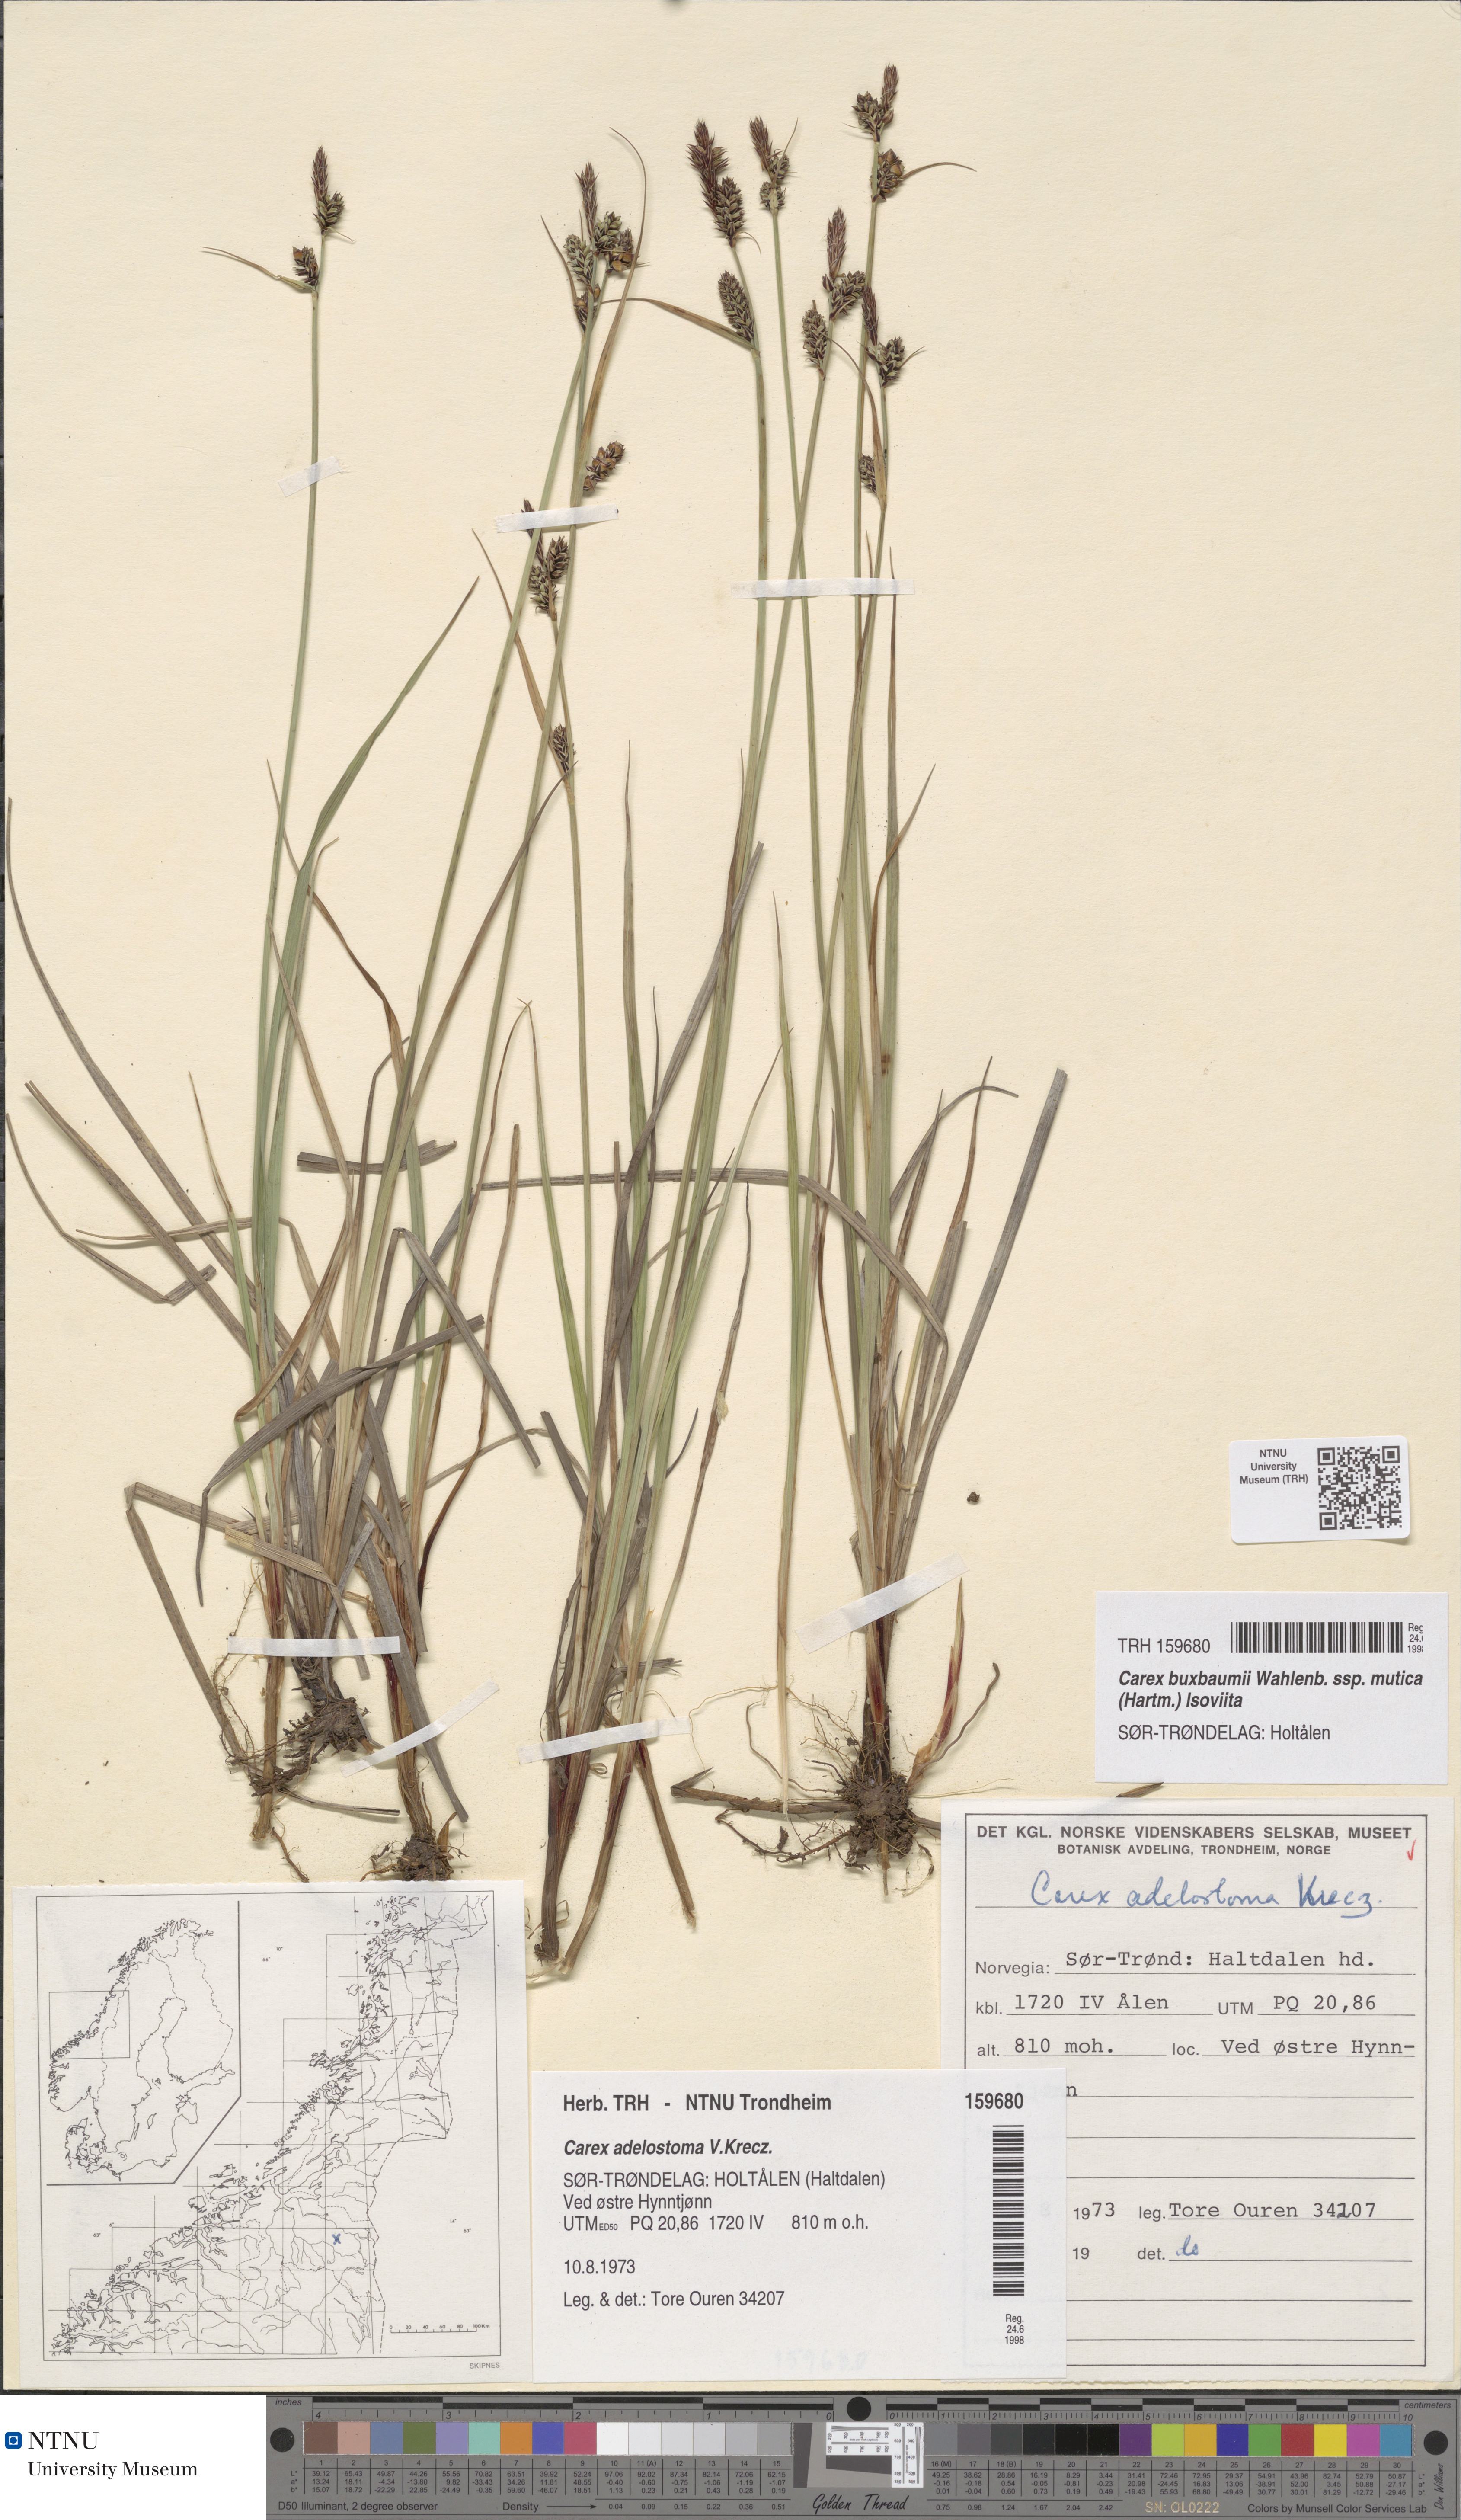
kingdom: Plantae
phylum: Tracheophyta
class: Liliopsida
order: Poales
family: Cyperaceae
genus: Carex
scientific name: Carex adelostoma
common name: Circumpolar sedge
